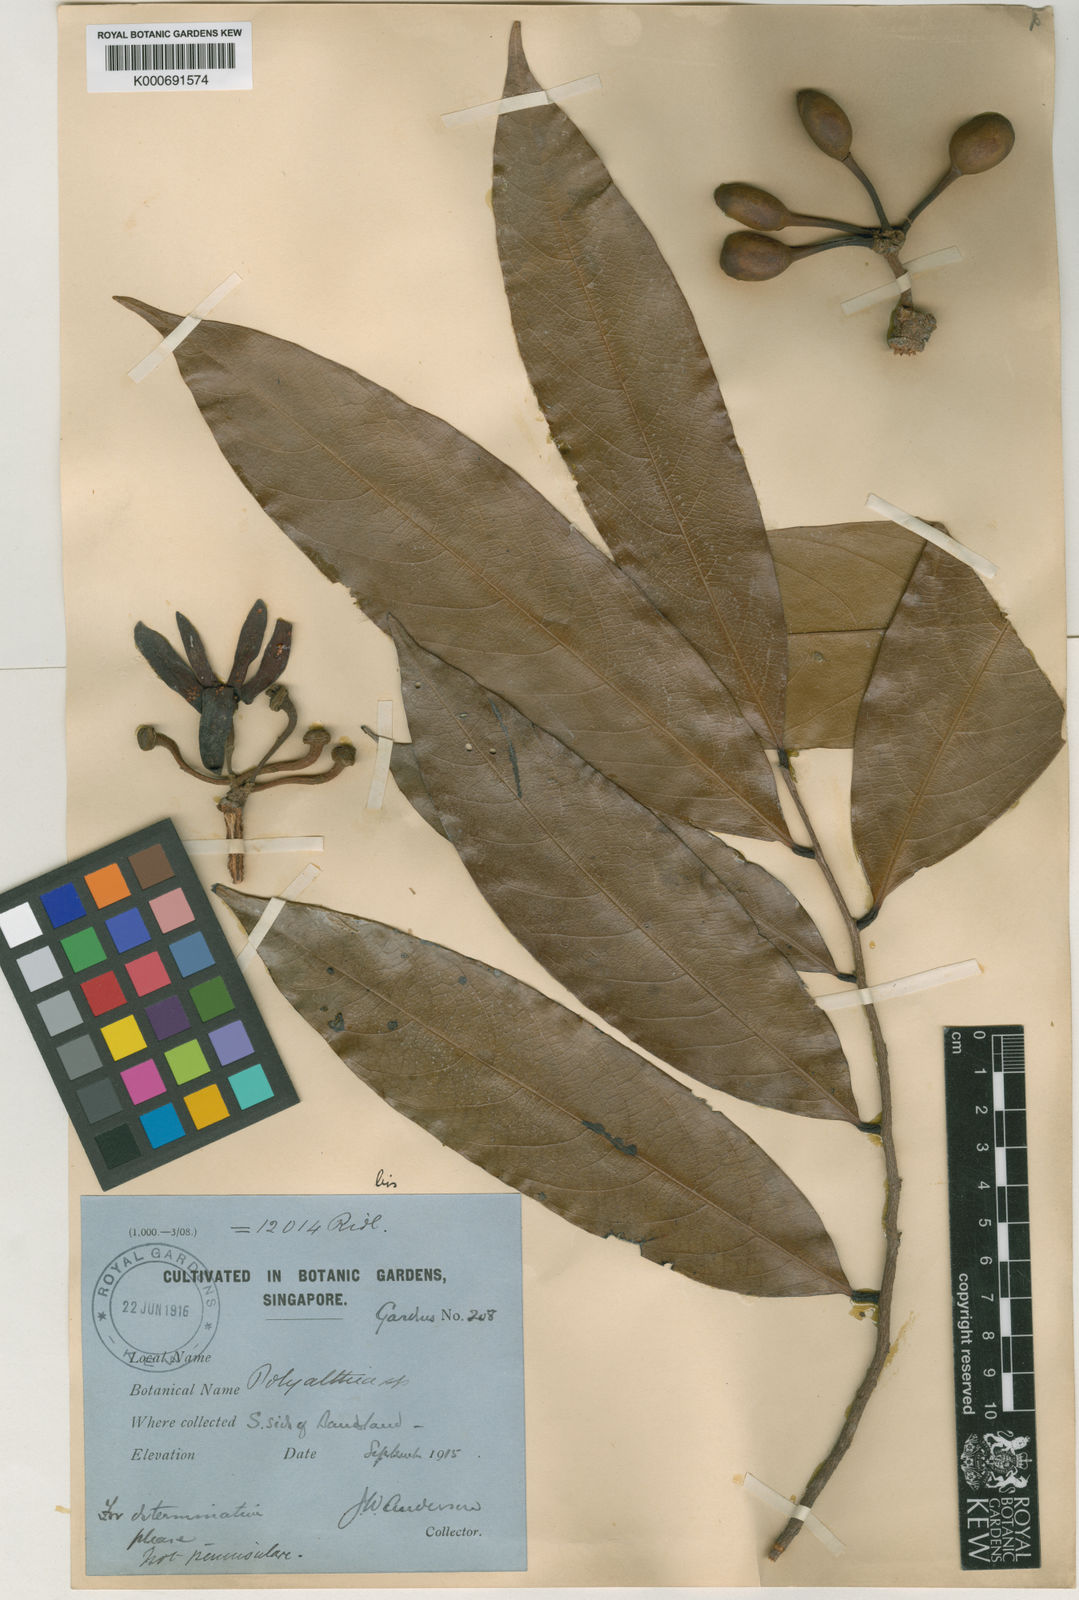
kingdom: Plantae
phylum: Tracheophyta
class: Magnoliopsida
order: Magnoliales
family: Annonaceae
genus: Polyalthia
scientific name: Polyalthia sclerophylla
